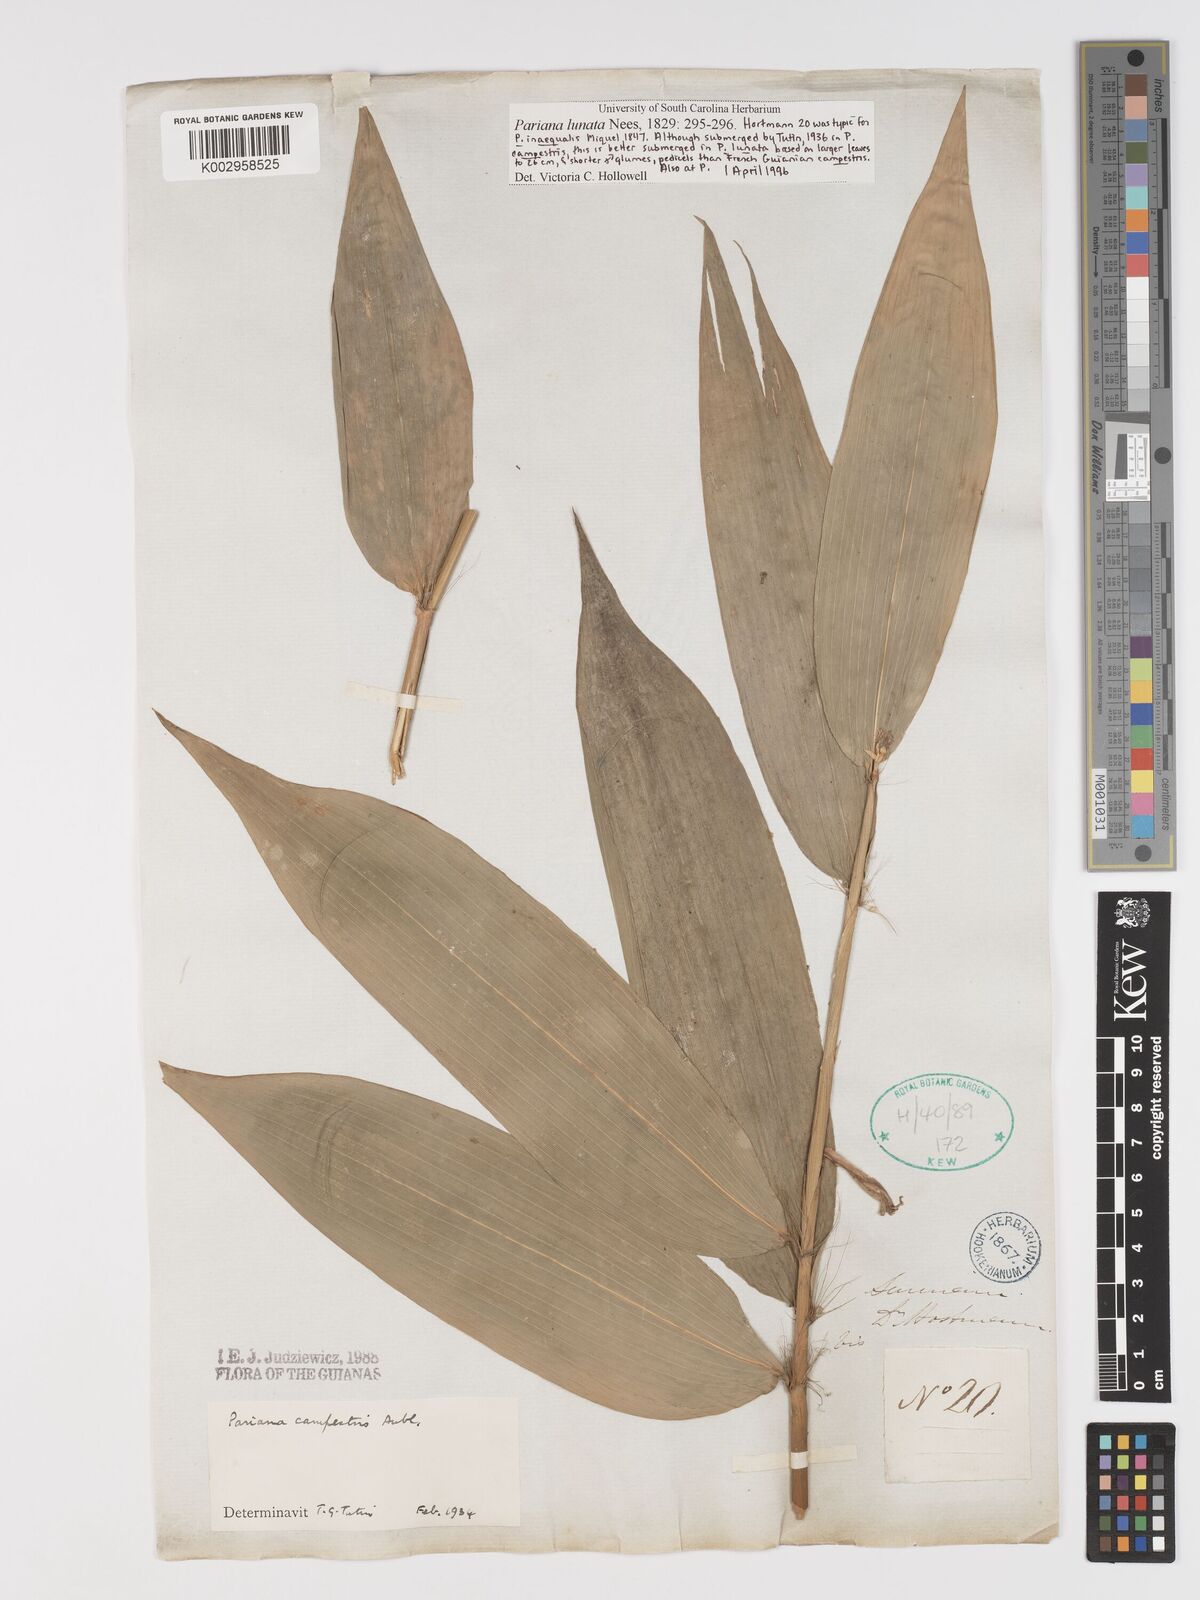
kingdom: Plantae
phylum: Tracheophyta
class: Liliopsida
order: Poales
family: Poaceae
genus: Pariana
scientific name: Pariana campestris
